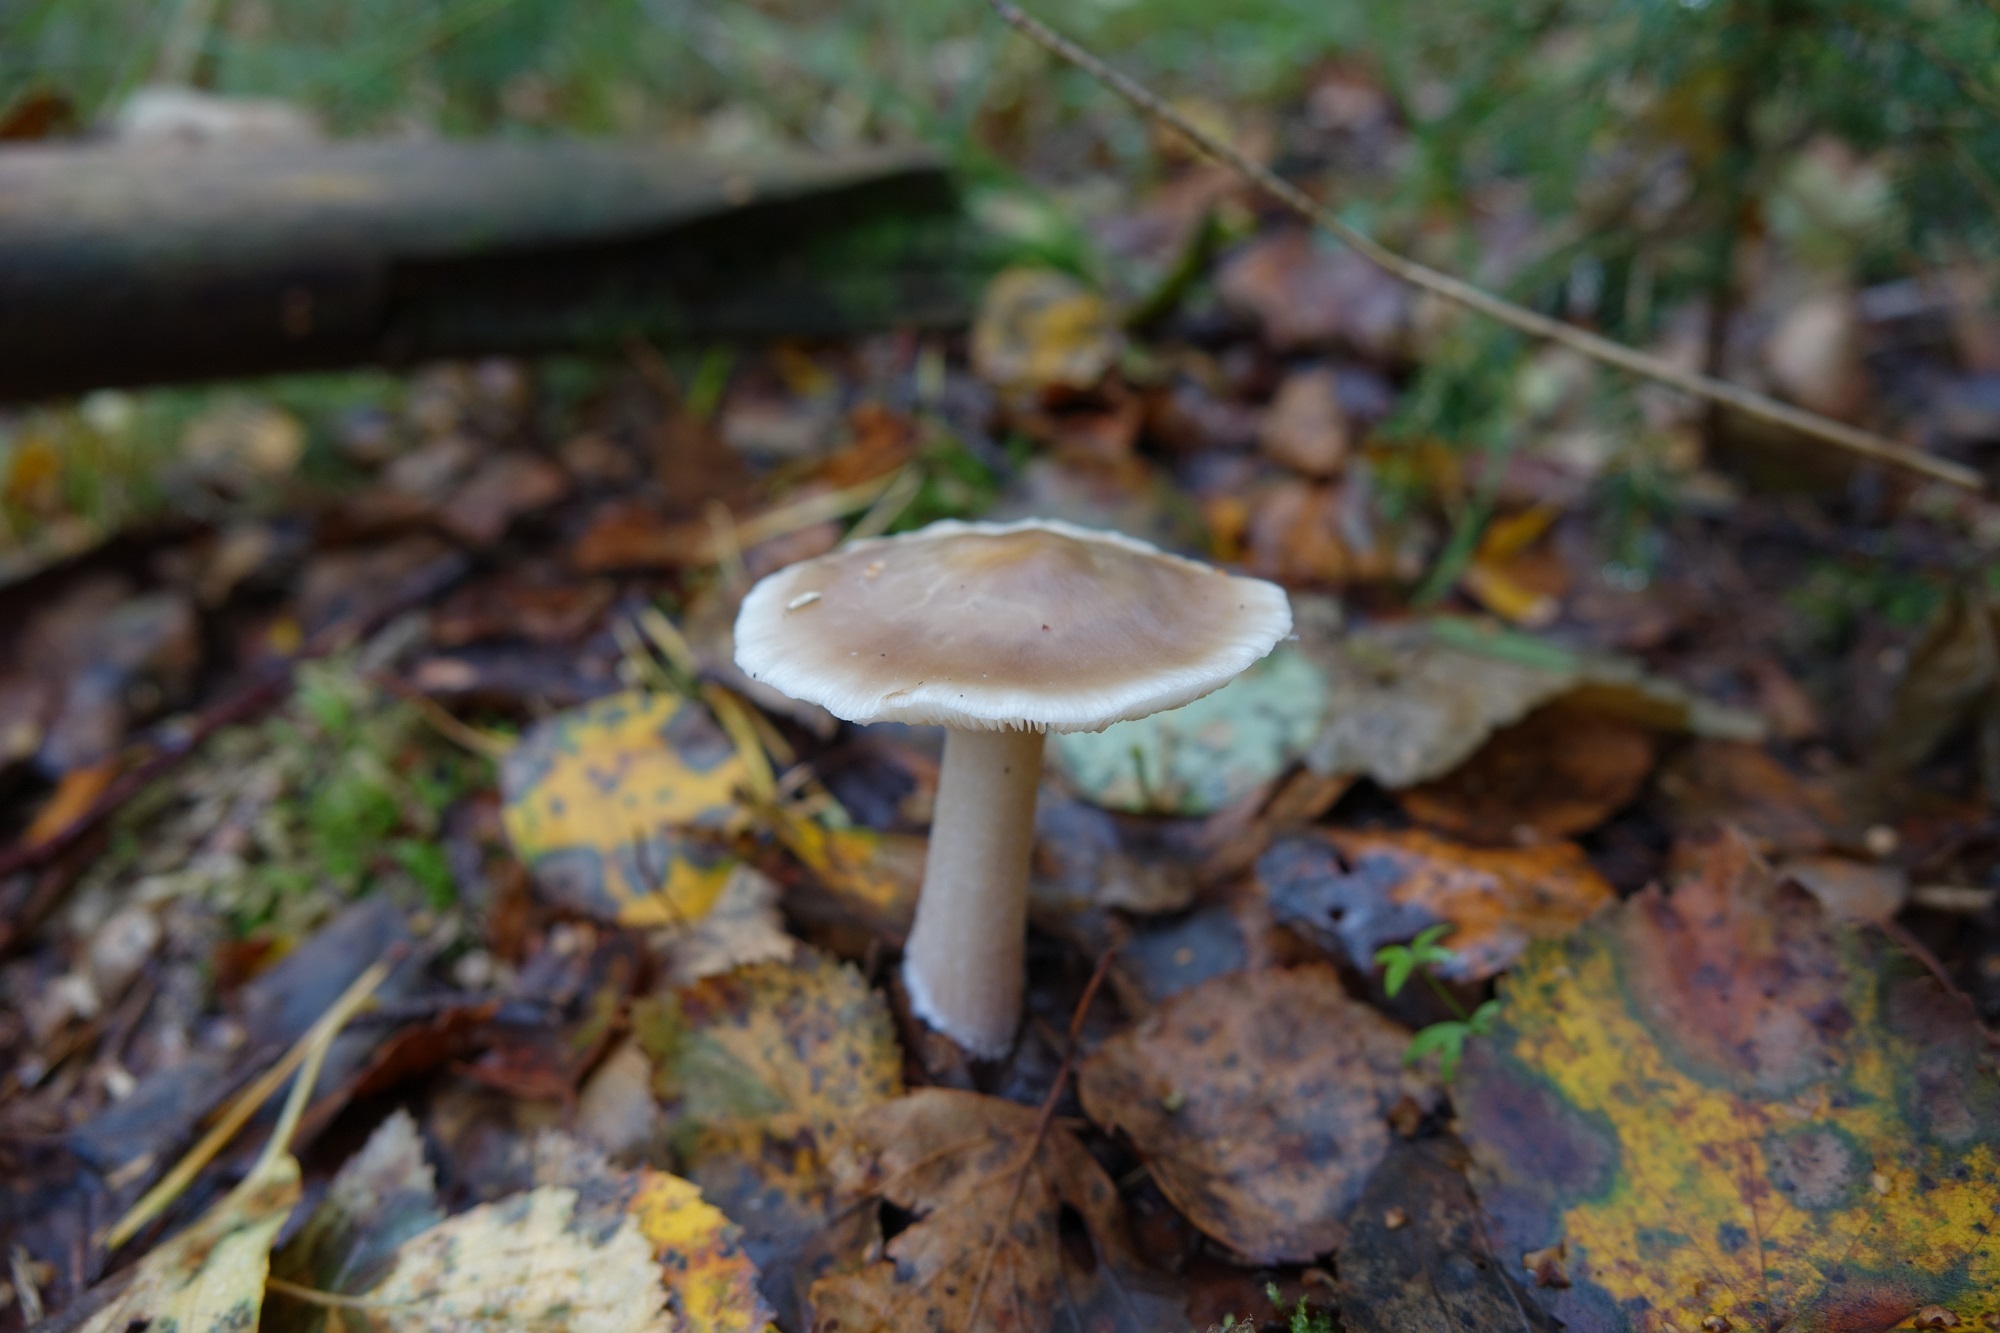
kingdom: Fungi
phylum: Basidiomycota
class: Agaricomycetes
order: Agaricales
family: Omphalotaceae
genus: Rhodocollybia
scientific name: Rhodocollybia asema
